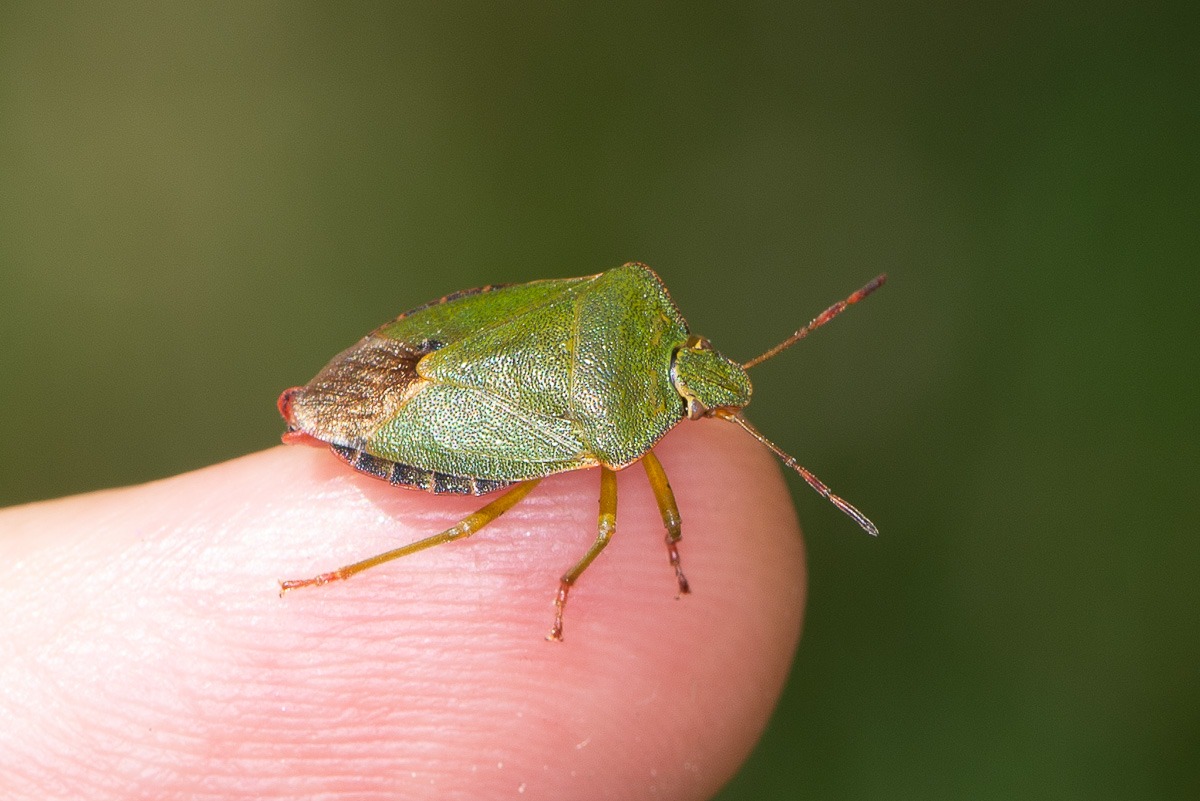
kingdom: Animalia
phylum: Arthropoda
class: Insecta
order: Hemiptera
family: Pentatomidae
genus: Palomena
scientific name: Palomena prasina
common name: Grøn bredtæge
